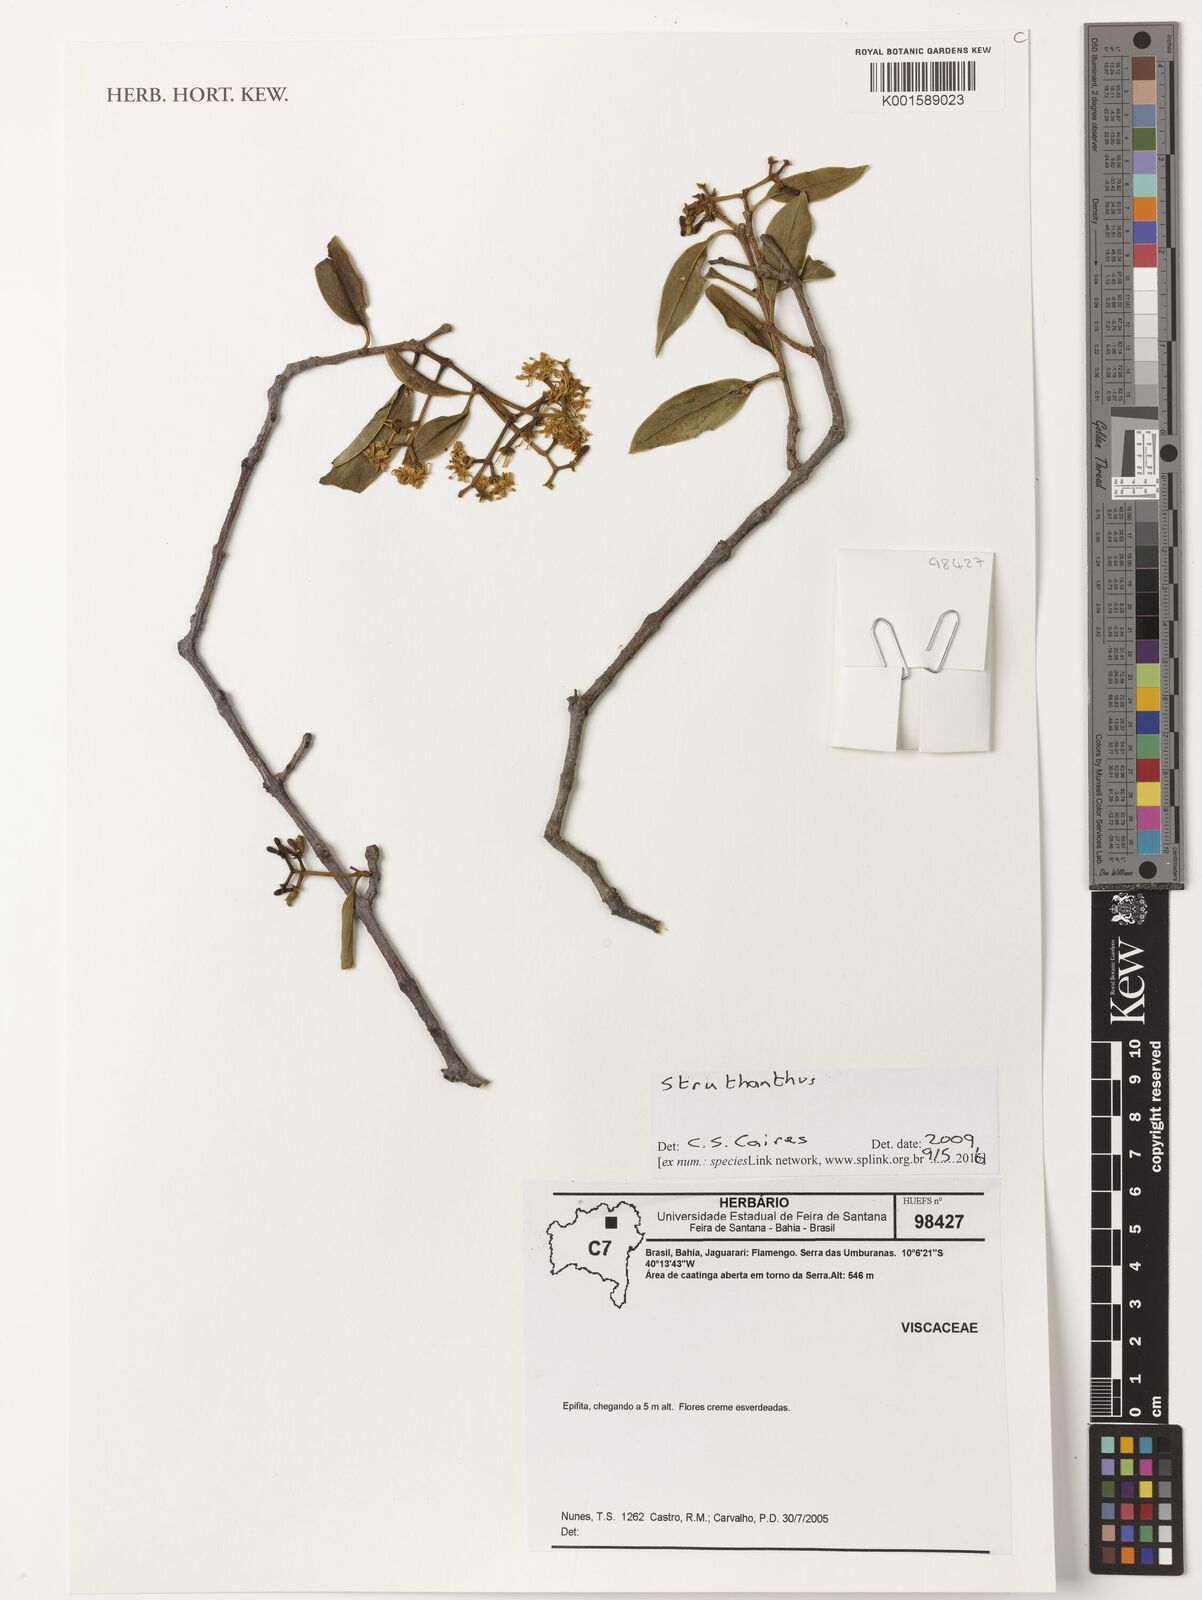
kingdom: Plantae
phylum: Tracheophyta
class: Magnoliopsida
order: Santalales
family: Loranthaceae
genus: Struthanthus
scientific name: Struthanthus
